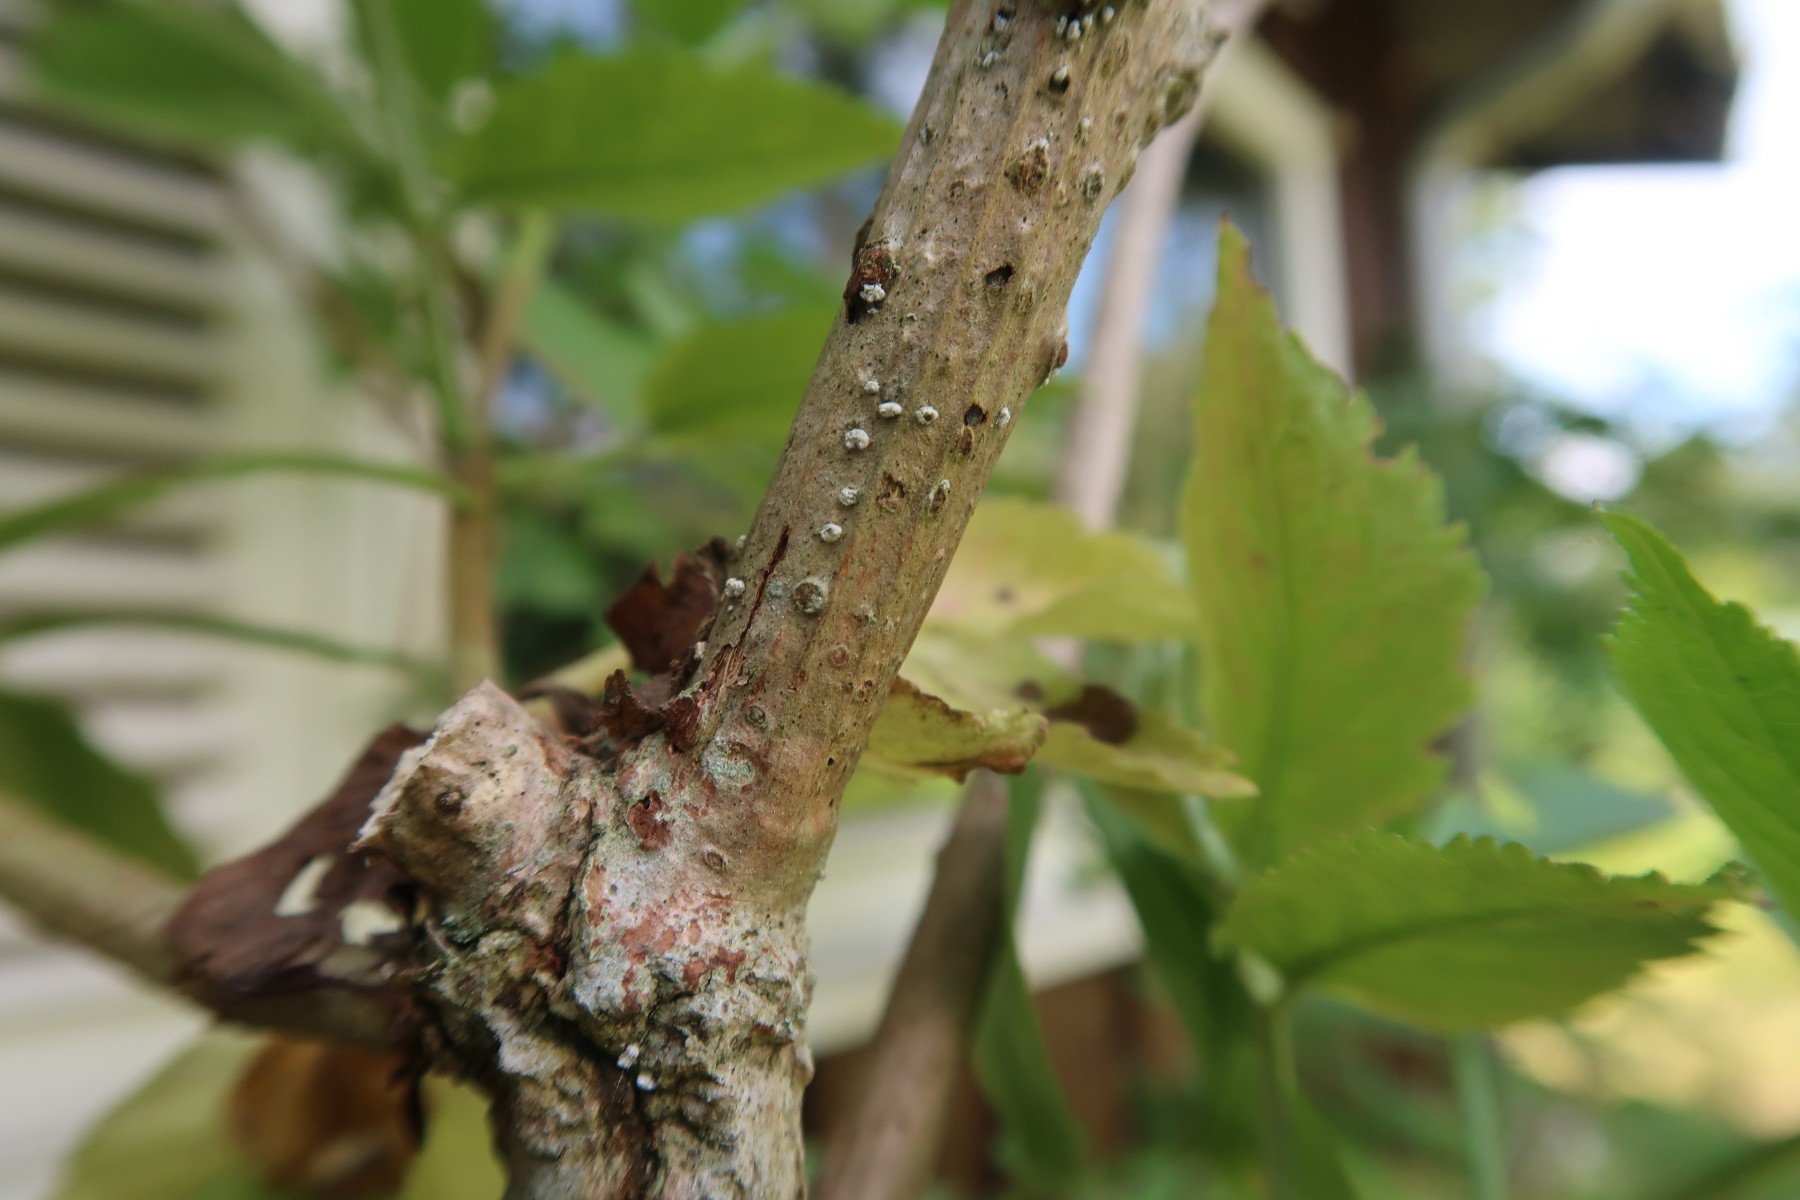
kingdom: Fungi
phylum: Basidiomycota
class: Agaricomycetes
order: Agaricales
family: Niaceae
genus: Lachnella
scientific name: Lachnella alboviolascens
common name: grå frynserede
